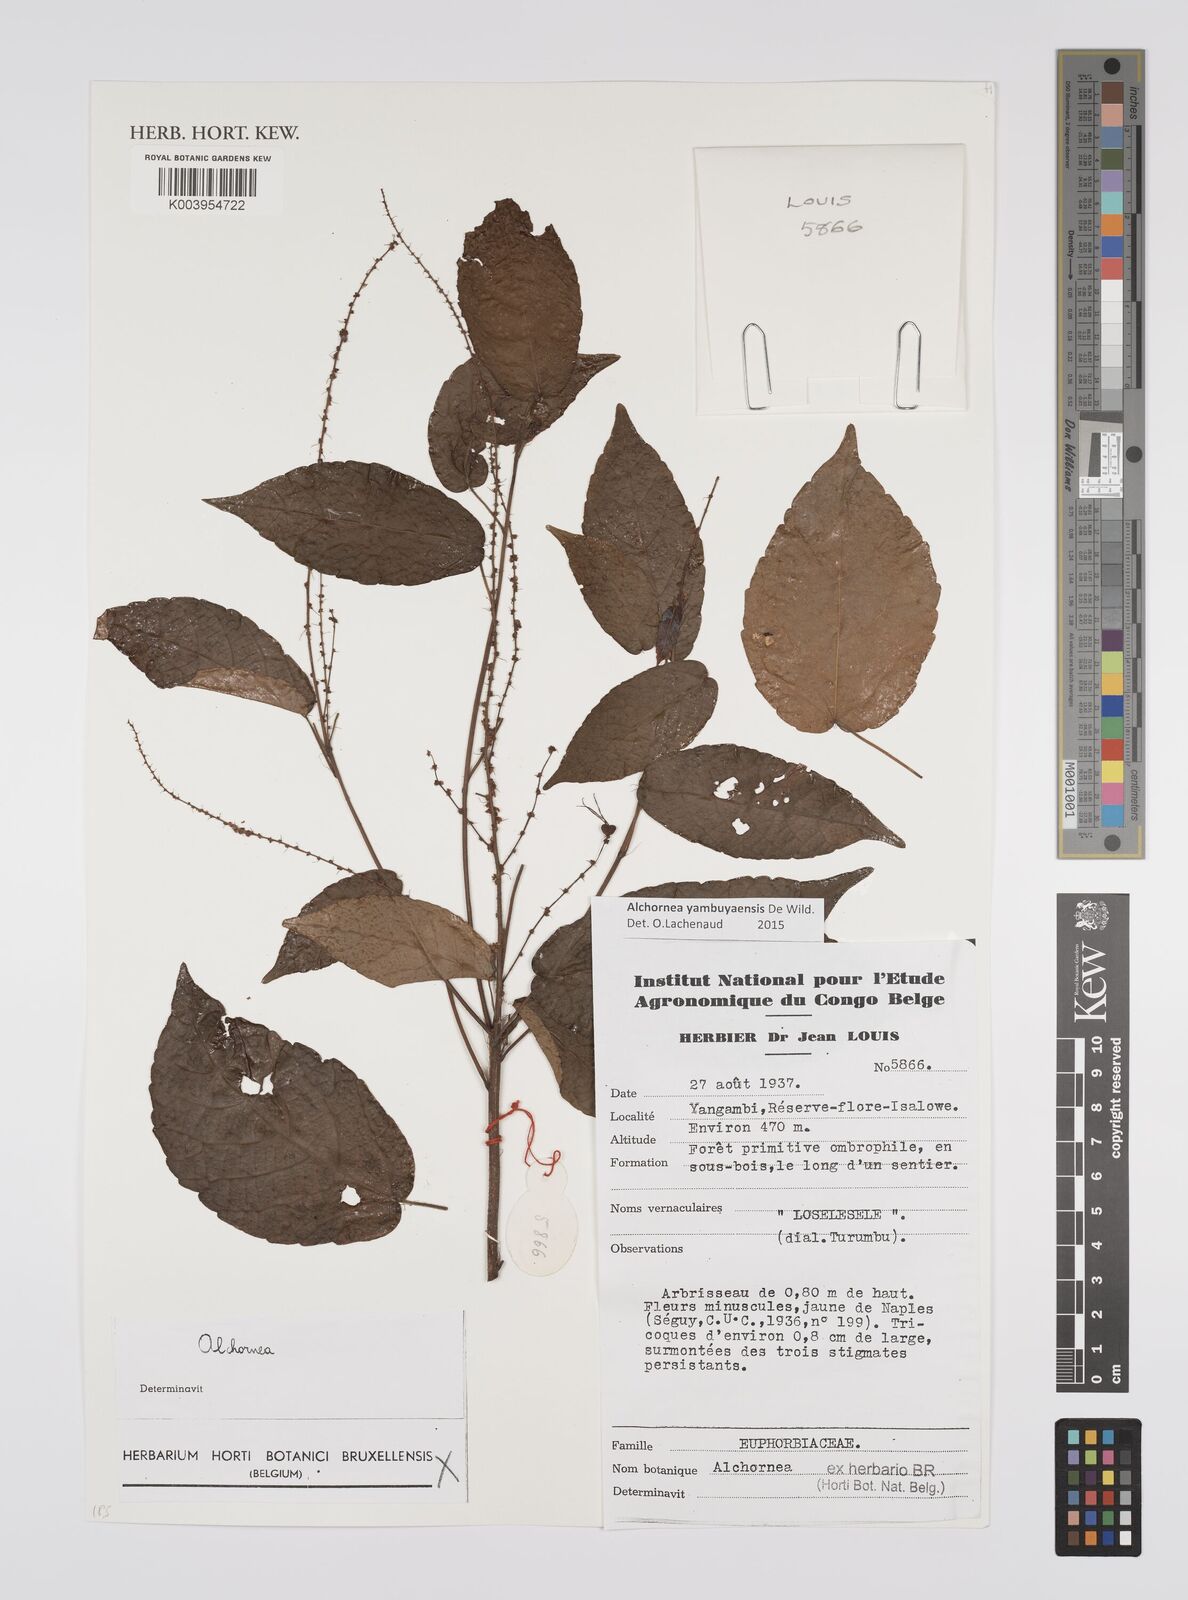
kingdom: Plantae
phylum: Tracheophyta
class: Magnoliopsida
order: Malpighiales
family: Euphorbiaceae
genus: Alchornea
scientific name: Alchornea yambuyaensis
